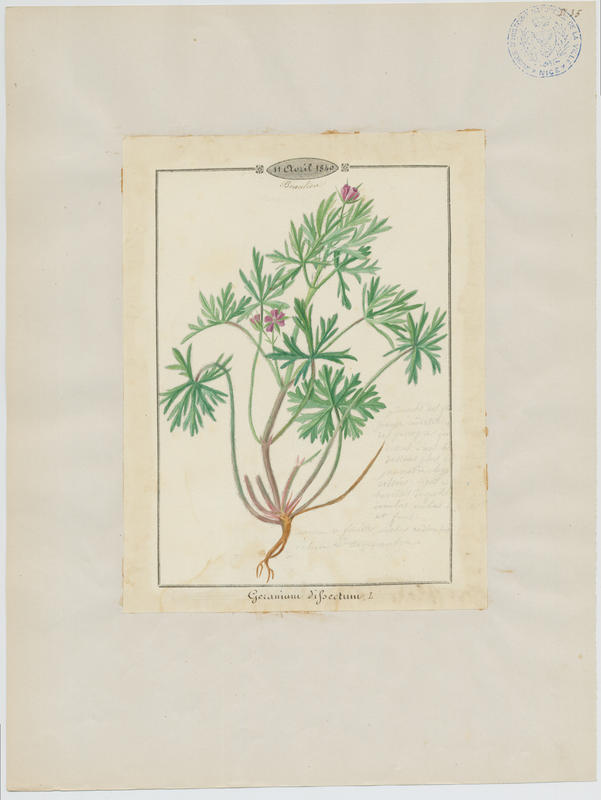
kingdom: Plantae
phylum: Tracheophyta
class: Magnoliopsida
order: Geraniales
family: Geraniaceae
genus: Geranium
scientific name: Geranium dissectum
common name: Cut-leaved crane's-bill
